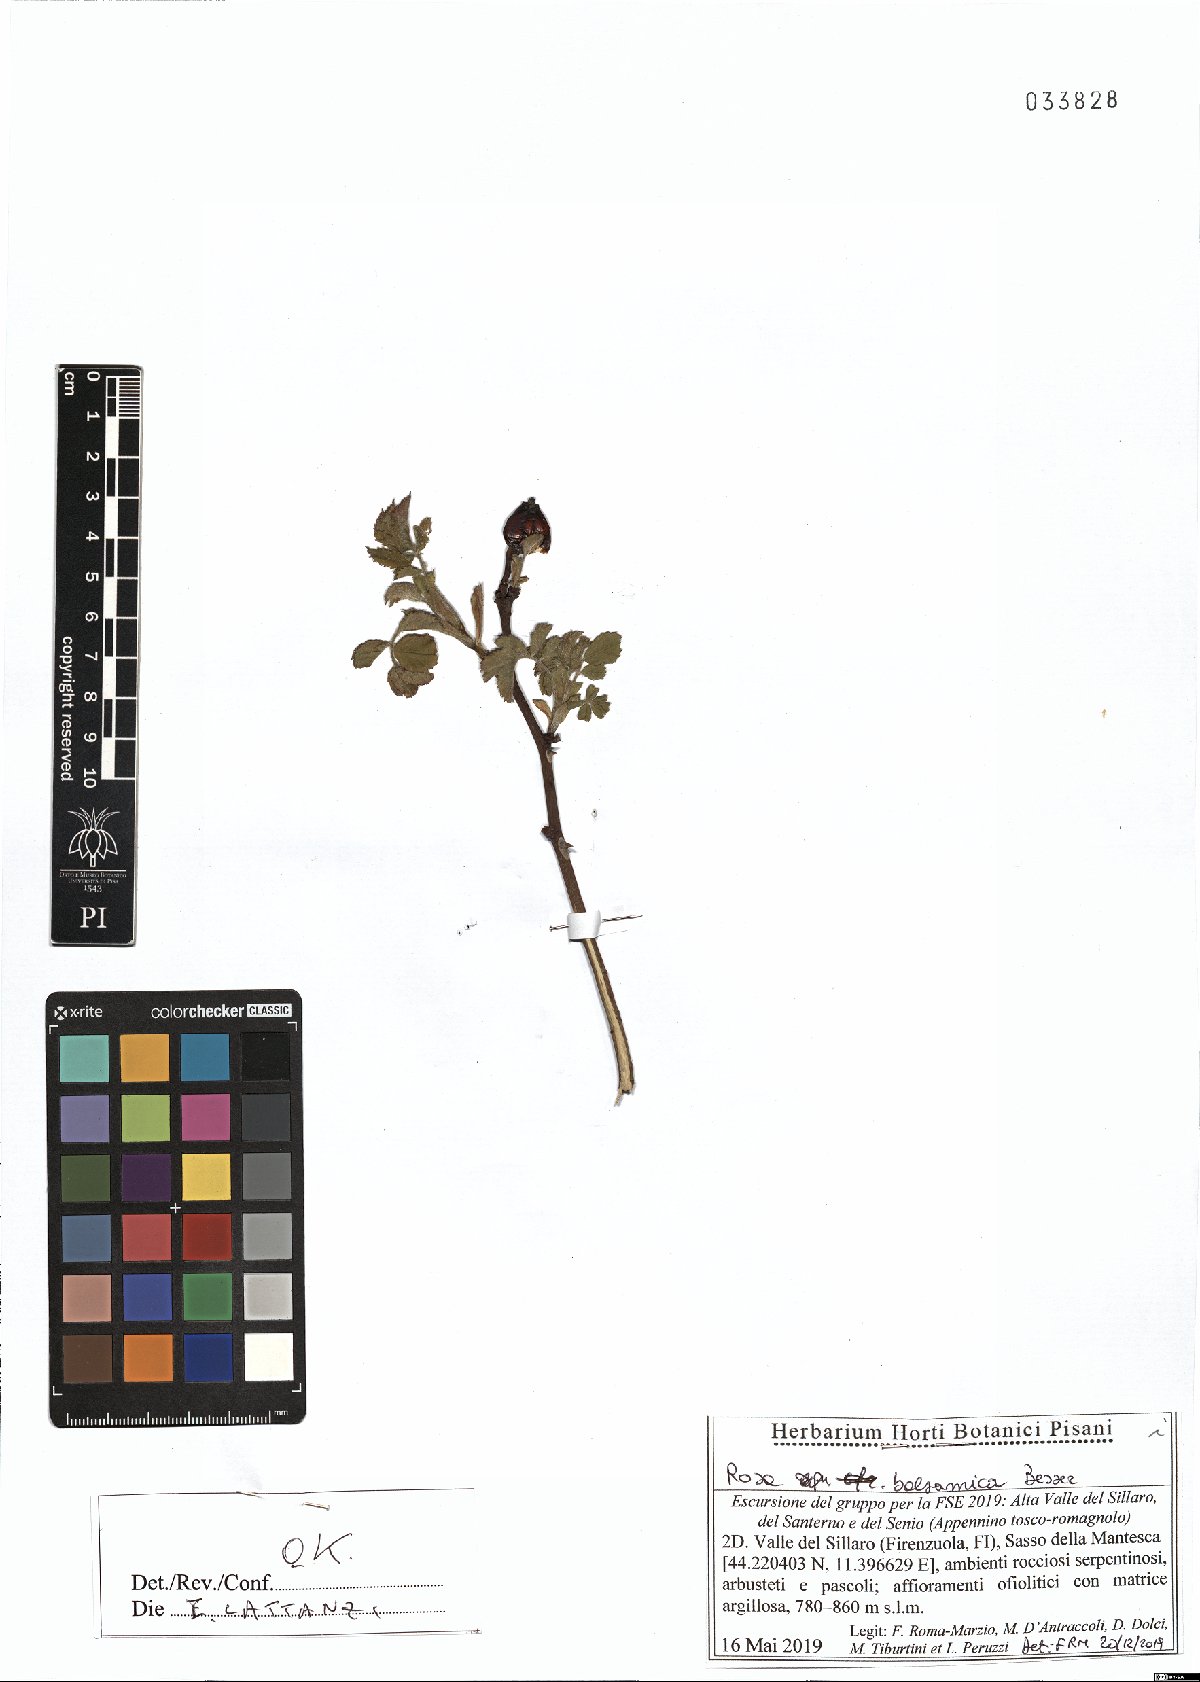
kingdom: Plantae
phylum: Tracheophyta
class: Magnoliopsida
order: Rosales
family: Rosaceae
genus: Rosa
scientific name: Rosa balsamica
